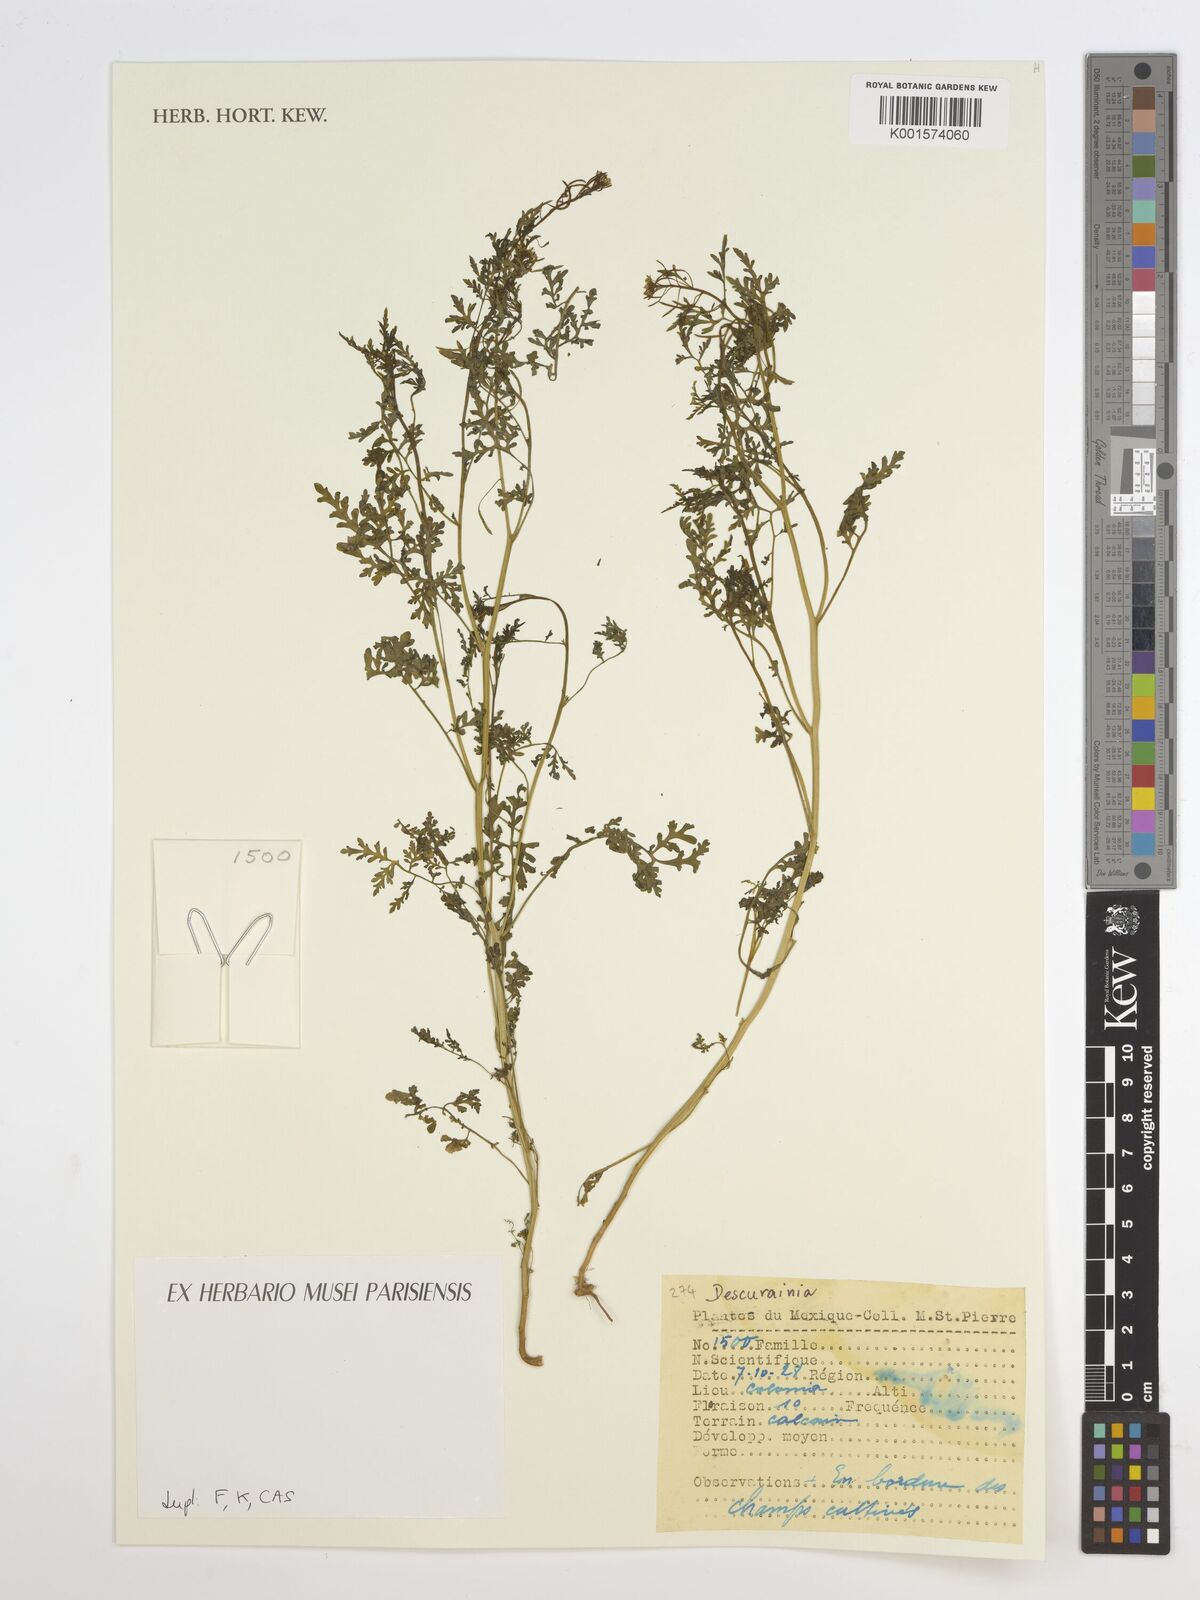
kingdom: Plantae
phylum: Tracheophyta
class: Magnoliopsida
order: Brassicales
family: Brassicaceae
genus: Descurainia
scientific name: Descurainia
